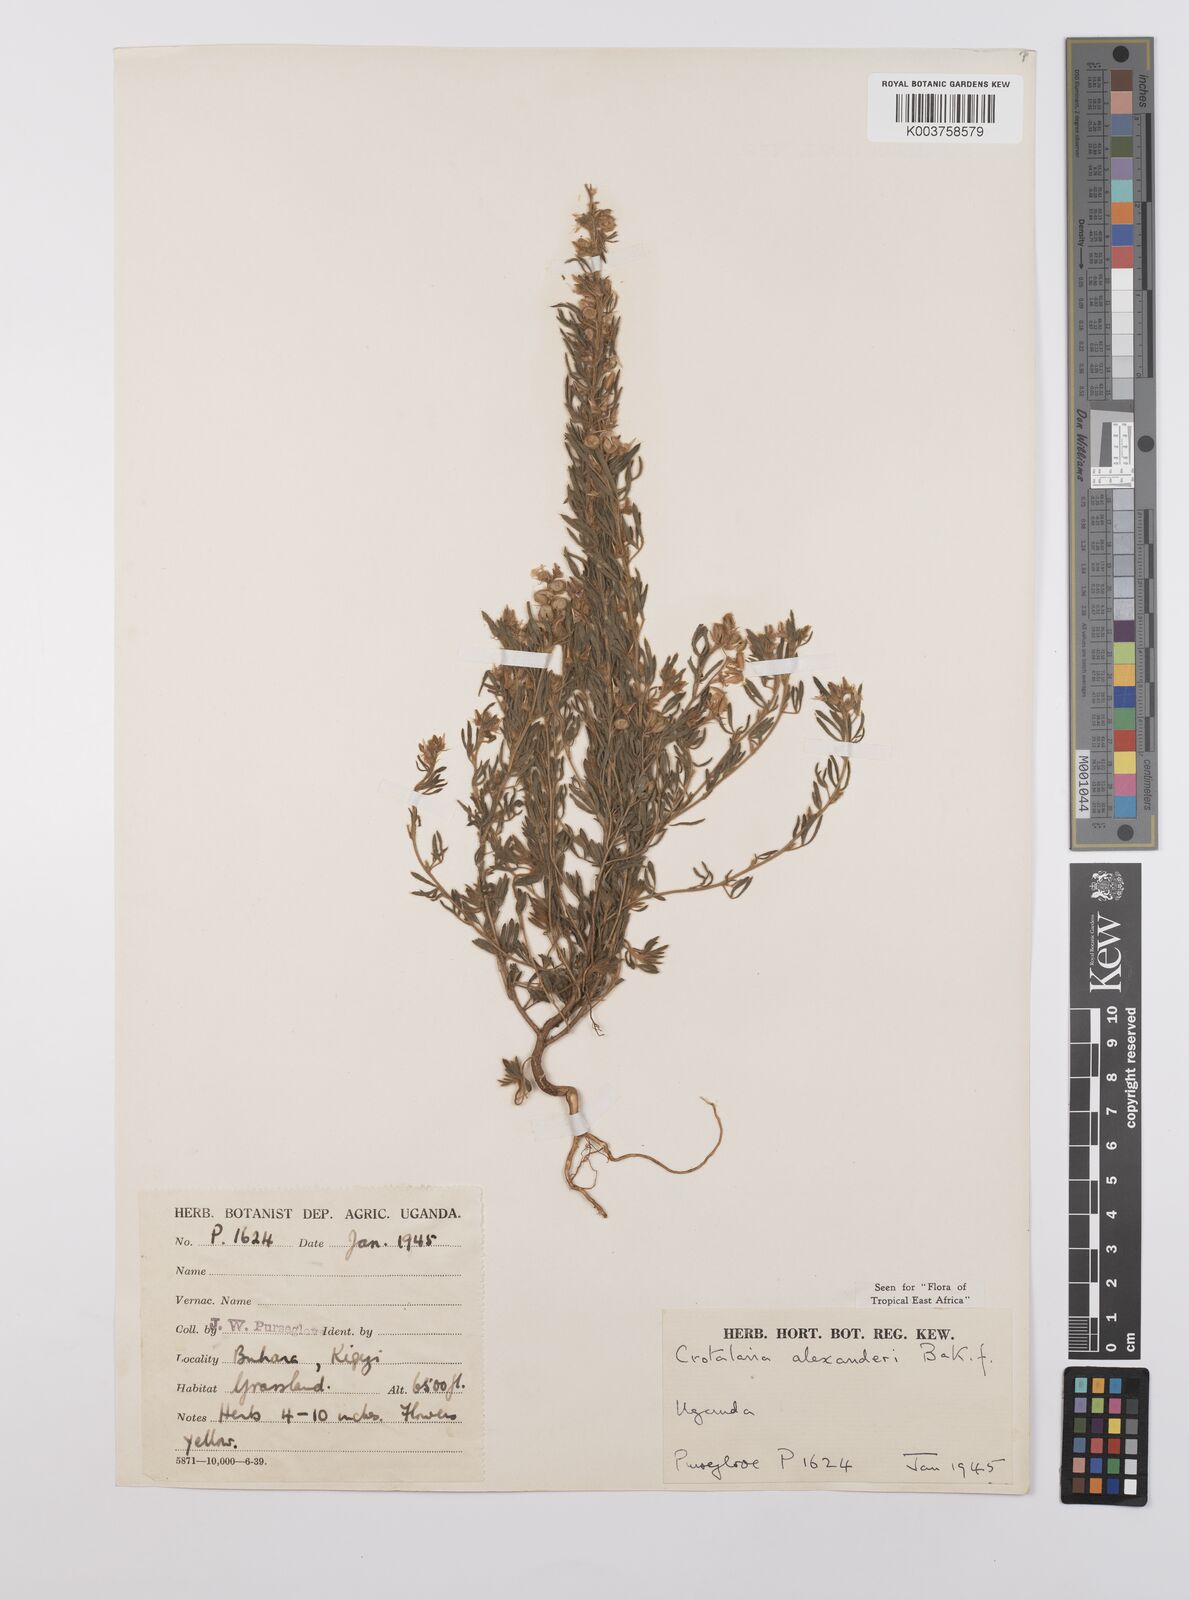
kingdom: Plantae
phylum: Tracheophyta
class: Magnoliopsida
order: Fabales
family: Fabaceae
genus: Crotalaria
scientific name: Crotalaria alexandri
